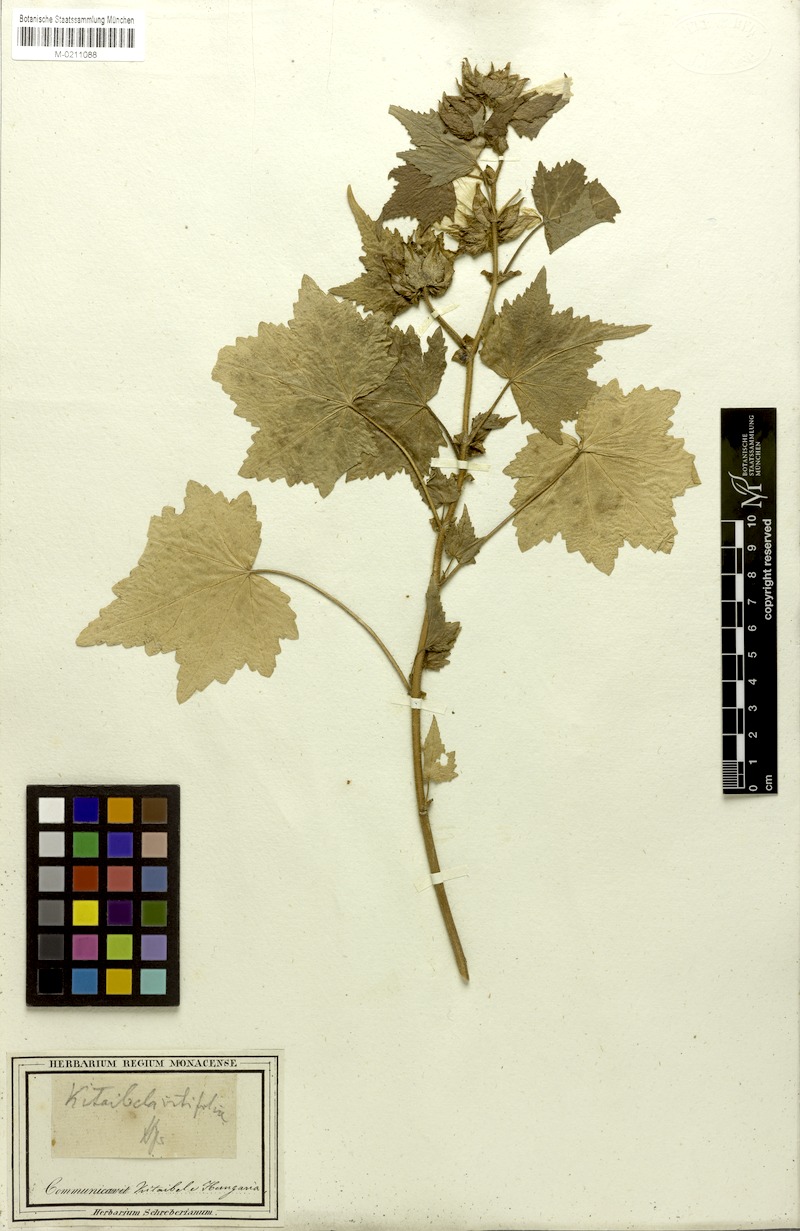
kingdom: Plantae
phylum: Tracheophyta
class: Magnoliopsida
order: Malvales
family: Malvaceae
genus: Kitaibela
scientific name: Kitaibela vitifolia
